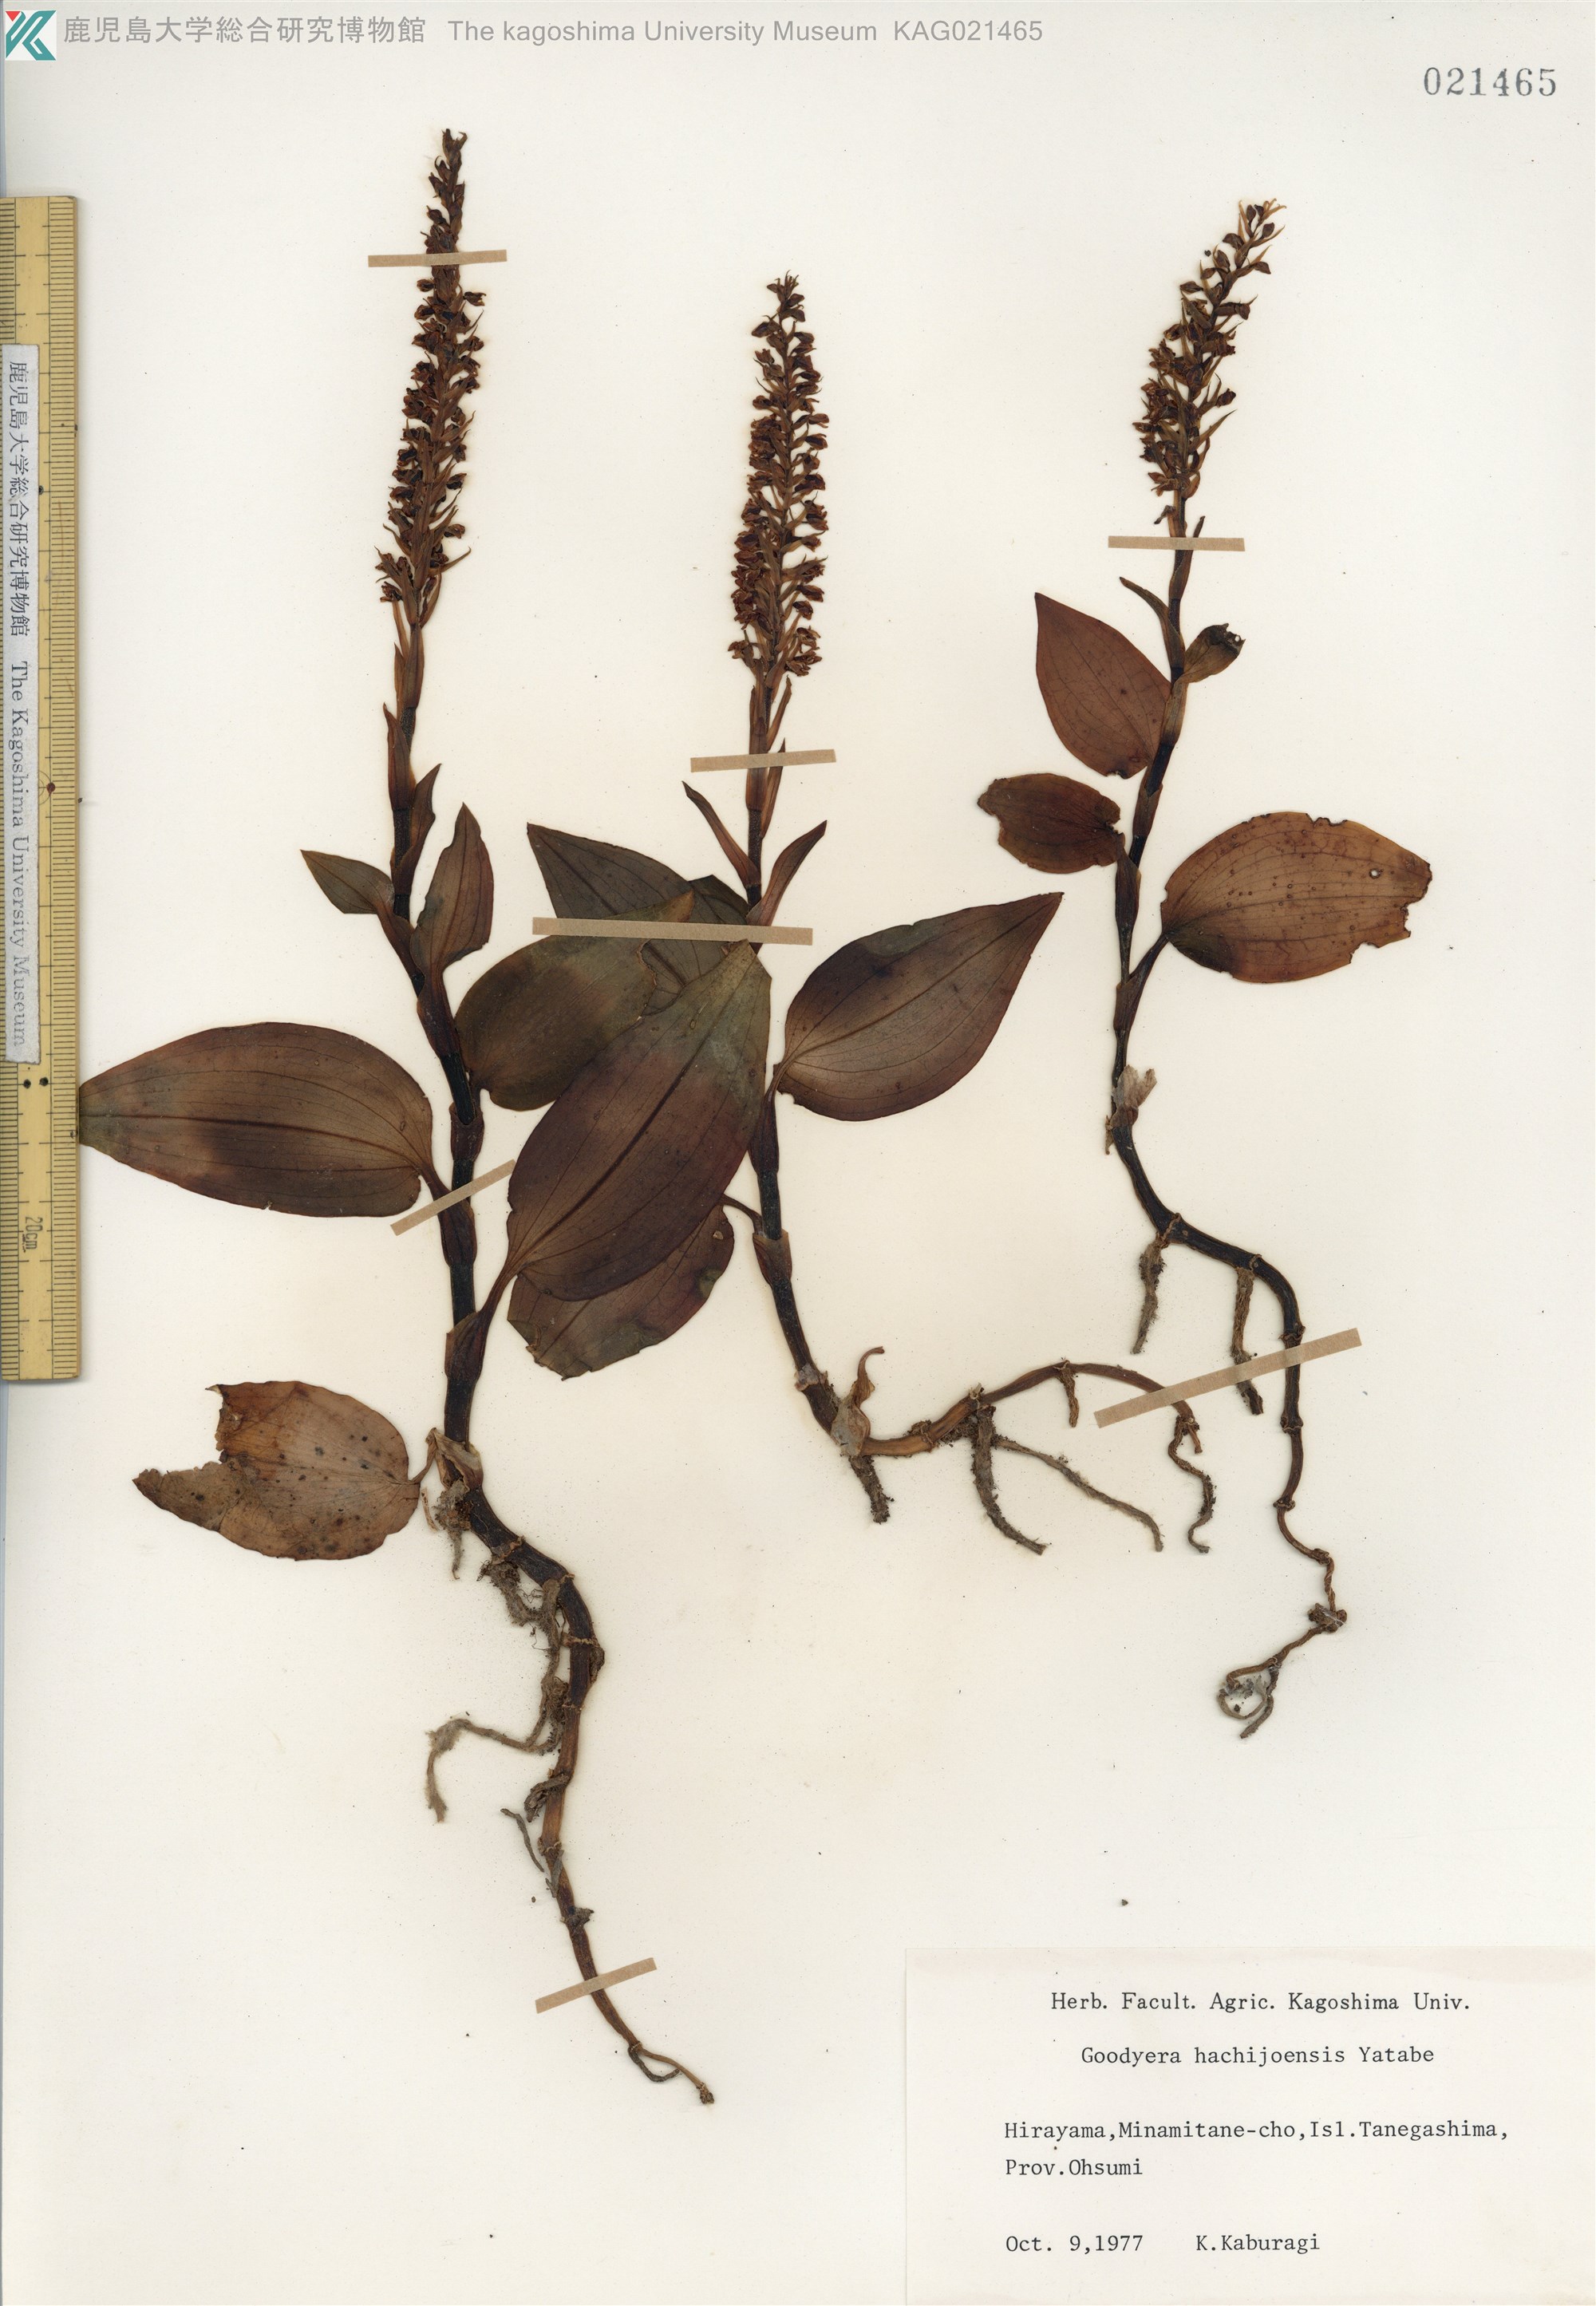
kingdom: Plantae
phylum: Tracheophyta
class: Liliopsida
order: Asparagales
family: Orchidaceae
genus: Goodyera
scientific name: Goodyera hachijoensis
